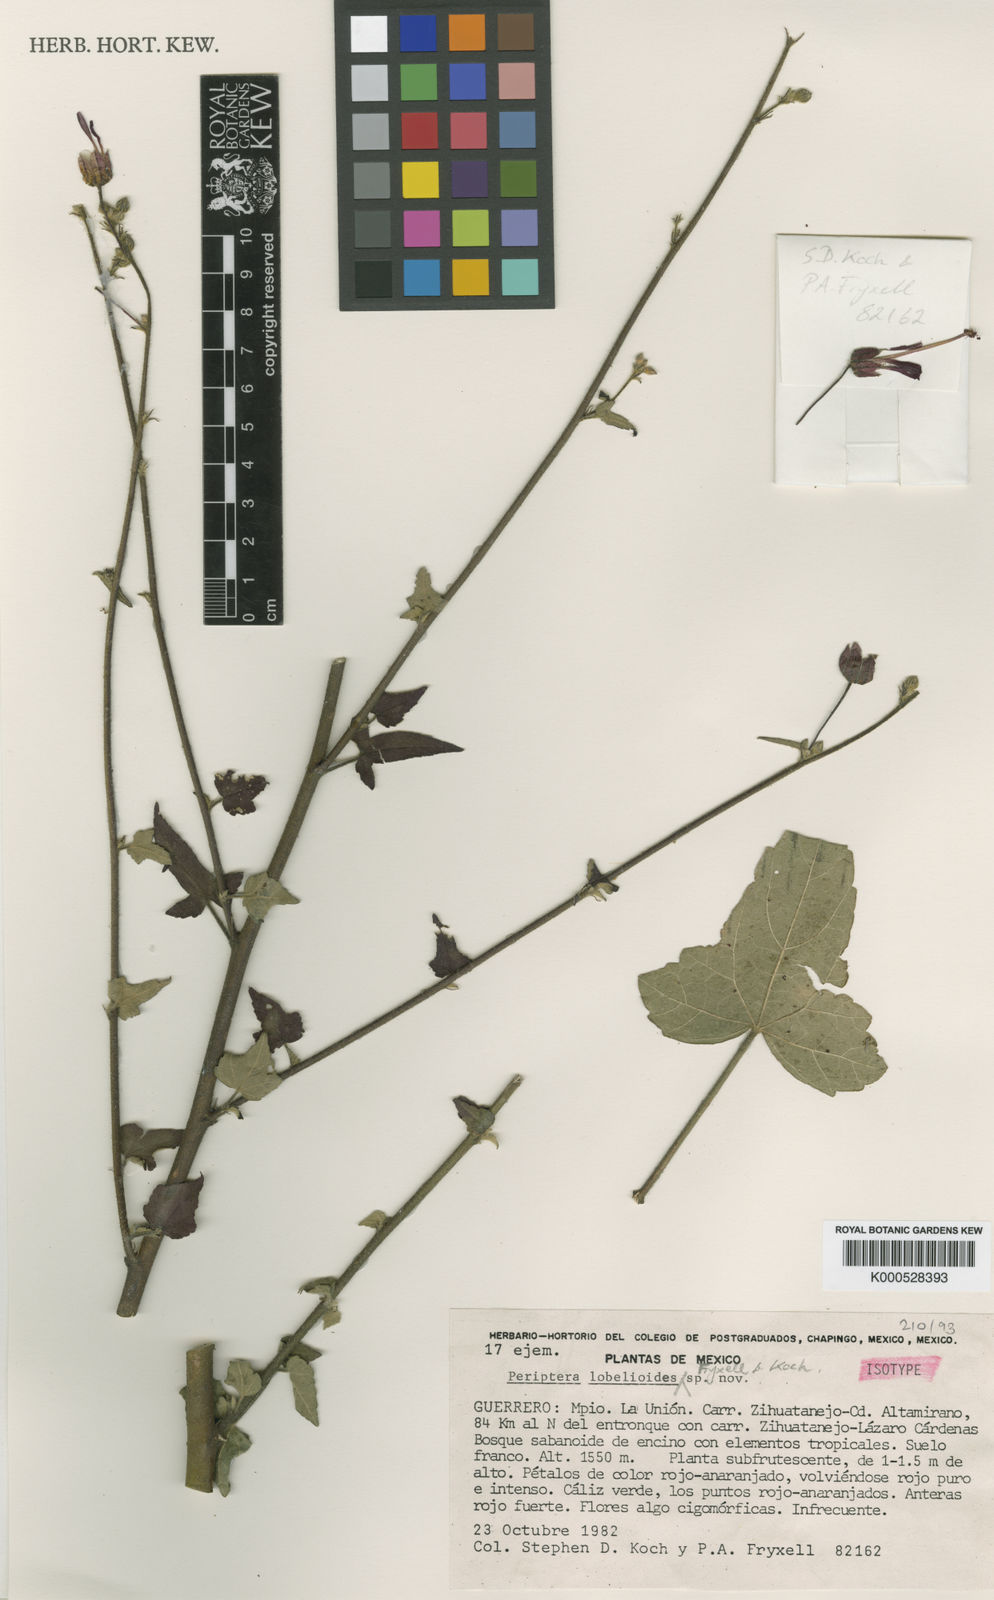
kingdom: Plantae
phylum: Tracheophyta
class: Magnoliopsida
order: Malvales
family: Malvaceae
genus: Periptera
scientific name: Periptera lobelioides
